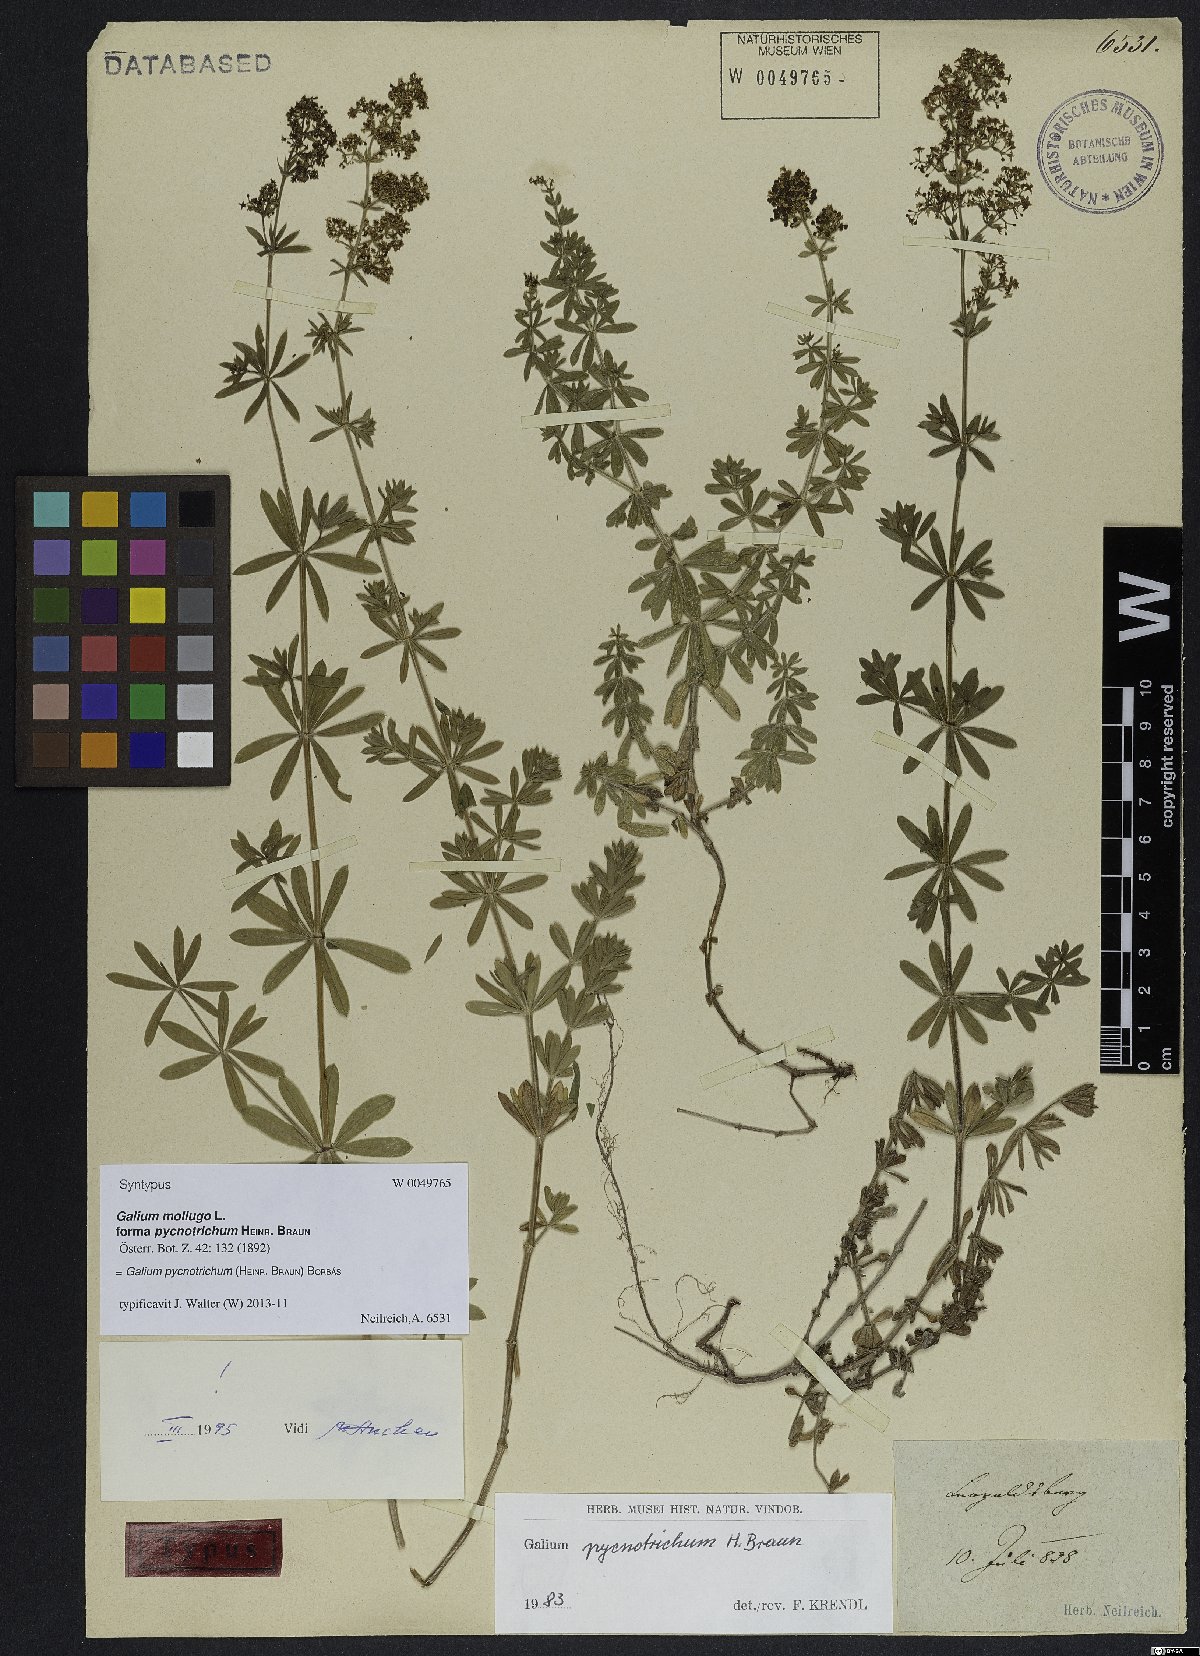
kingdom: Plantae
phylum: Tracheophyta
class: Magnoliopsida
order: Gentianales
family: Rubiaceae
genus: Galium
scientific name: Galium album
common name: White bedstraw
